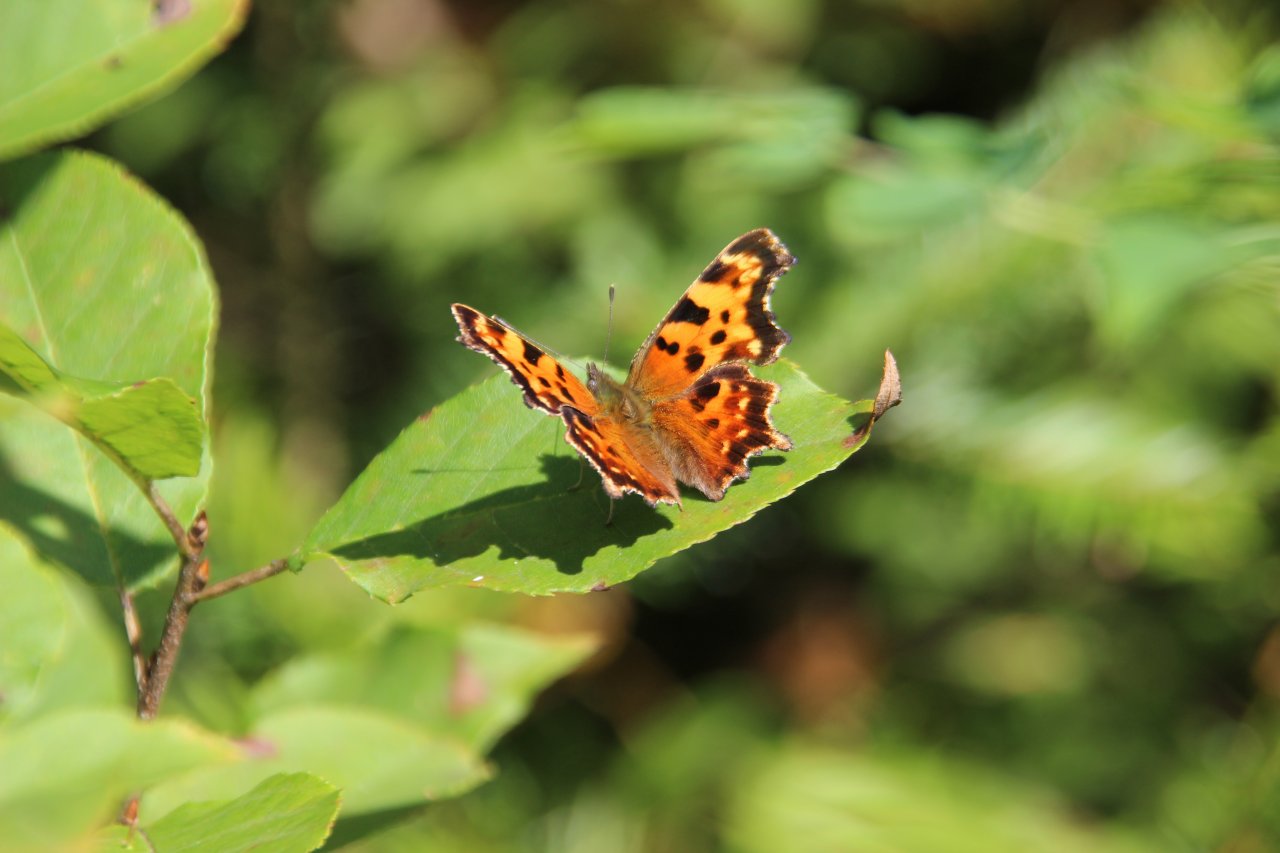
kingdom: Animalia
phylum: Arthropoda
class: Insecta
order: Lepidoptera
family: Nymphalidae
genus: Polygonia
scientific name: Polygonia faunus
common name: Green Comma
